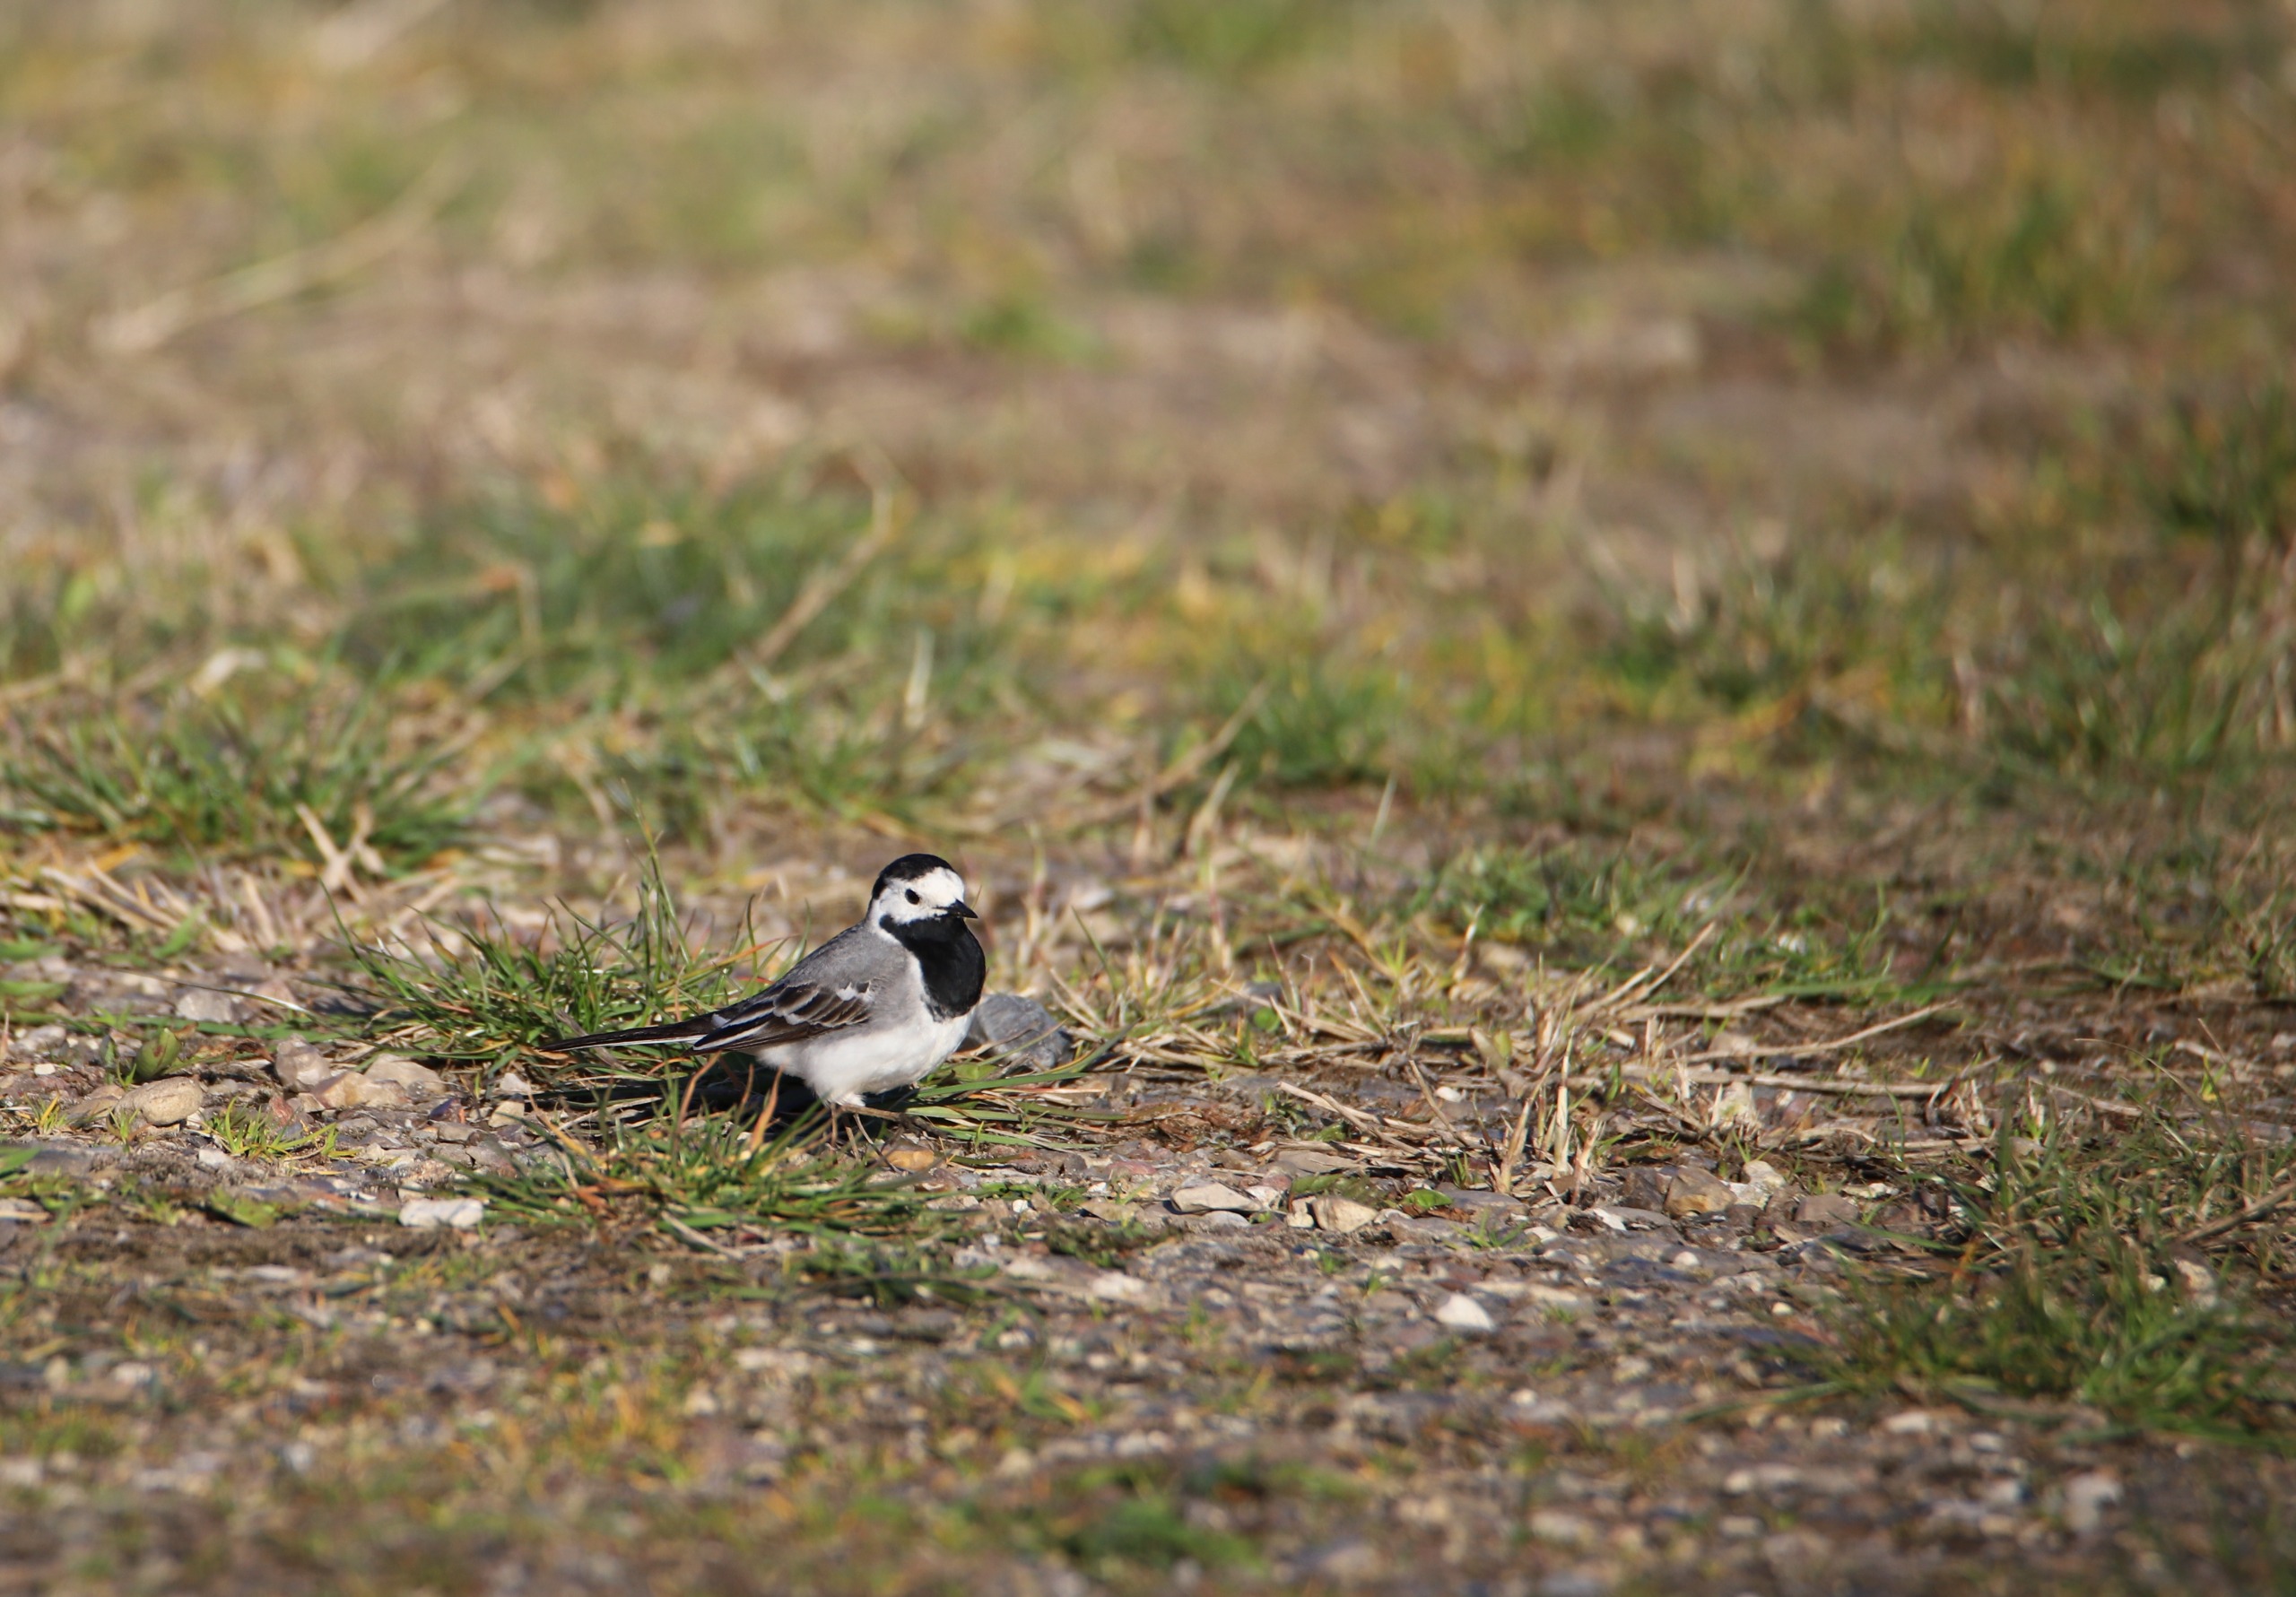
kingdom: Animalia
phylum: Chordata
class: Aves
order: Passeriformes
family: Motacillidae
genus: Motacilla
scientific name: Motacilla alba
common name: Hvid vipstjert
